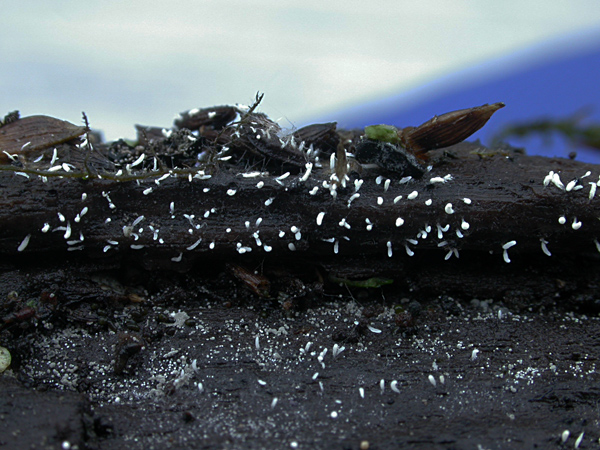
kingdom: Fungi
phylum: Basidiomycota
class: Agaricomycetes
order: Hymenochaetales
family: Rickenellaceae
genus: Bryopistillaria
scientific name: Bryopistillaria sagittiformis
